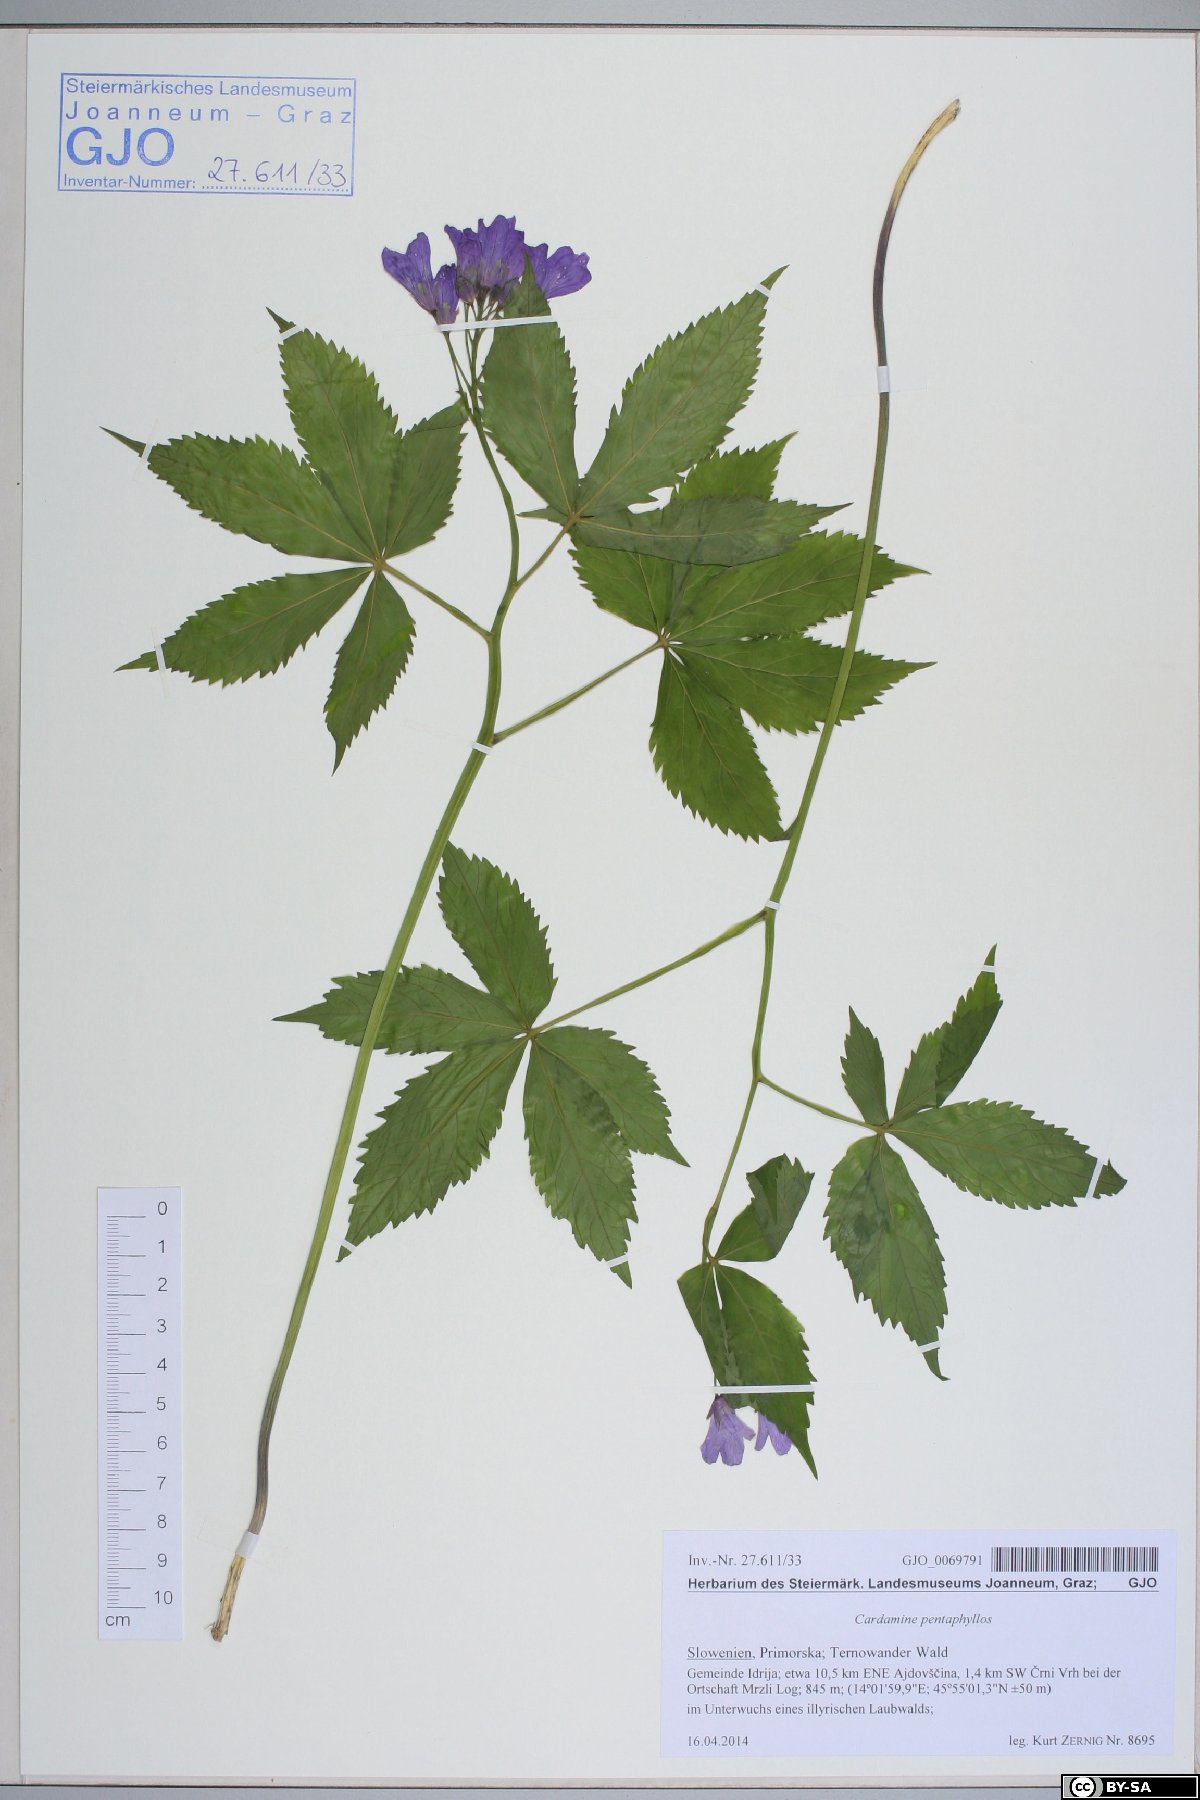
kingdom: Plantae
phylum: Tracheophyta
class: Magnoliopsida
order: Brassicales
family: Brassicaceae
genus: Cardamine
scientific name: Cardamine pentaphyllos
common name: Five-leaflet bitter-cress
